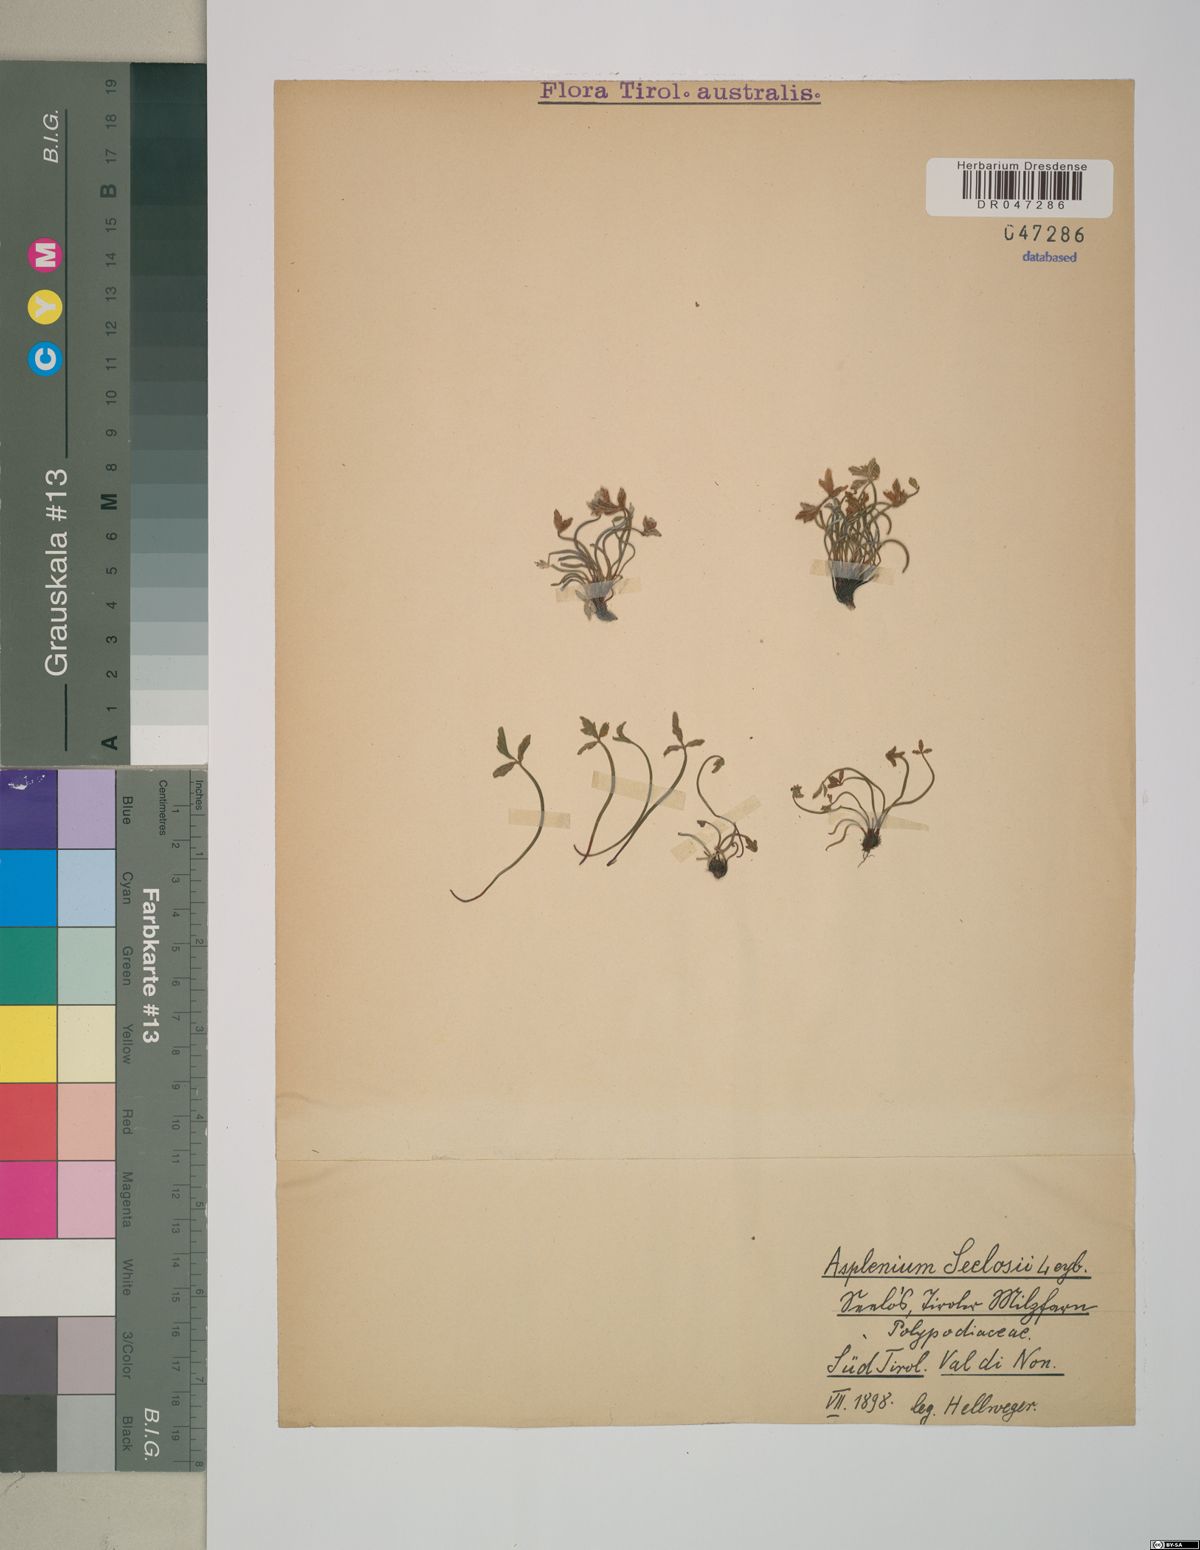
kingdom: Plantae
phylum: Tracheophyta
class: Polypodiopsida
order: Polypodiales
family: Aspleniaceae
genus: Asplenium
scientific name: Asplenium seelosii
